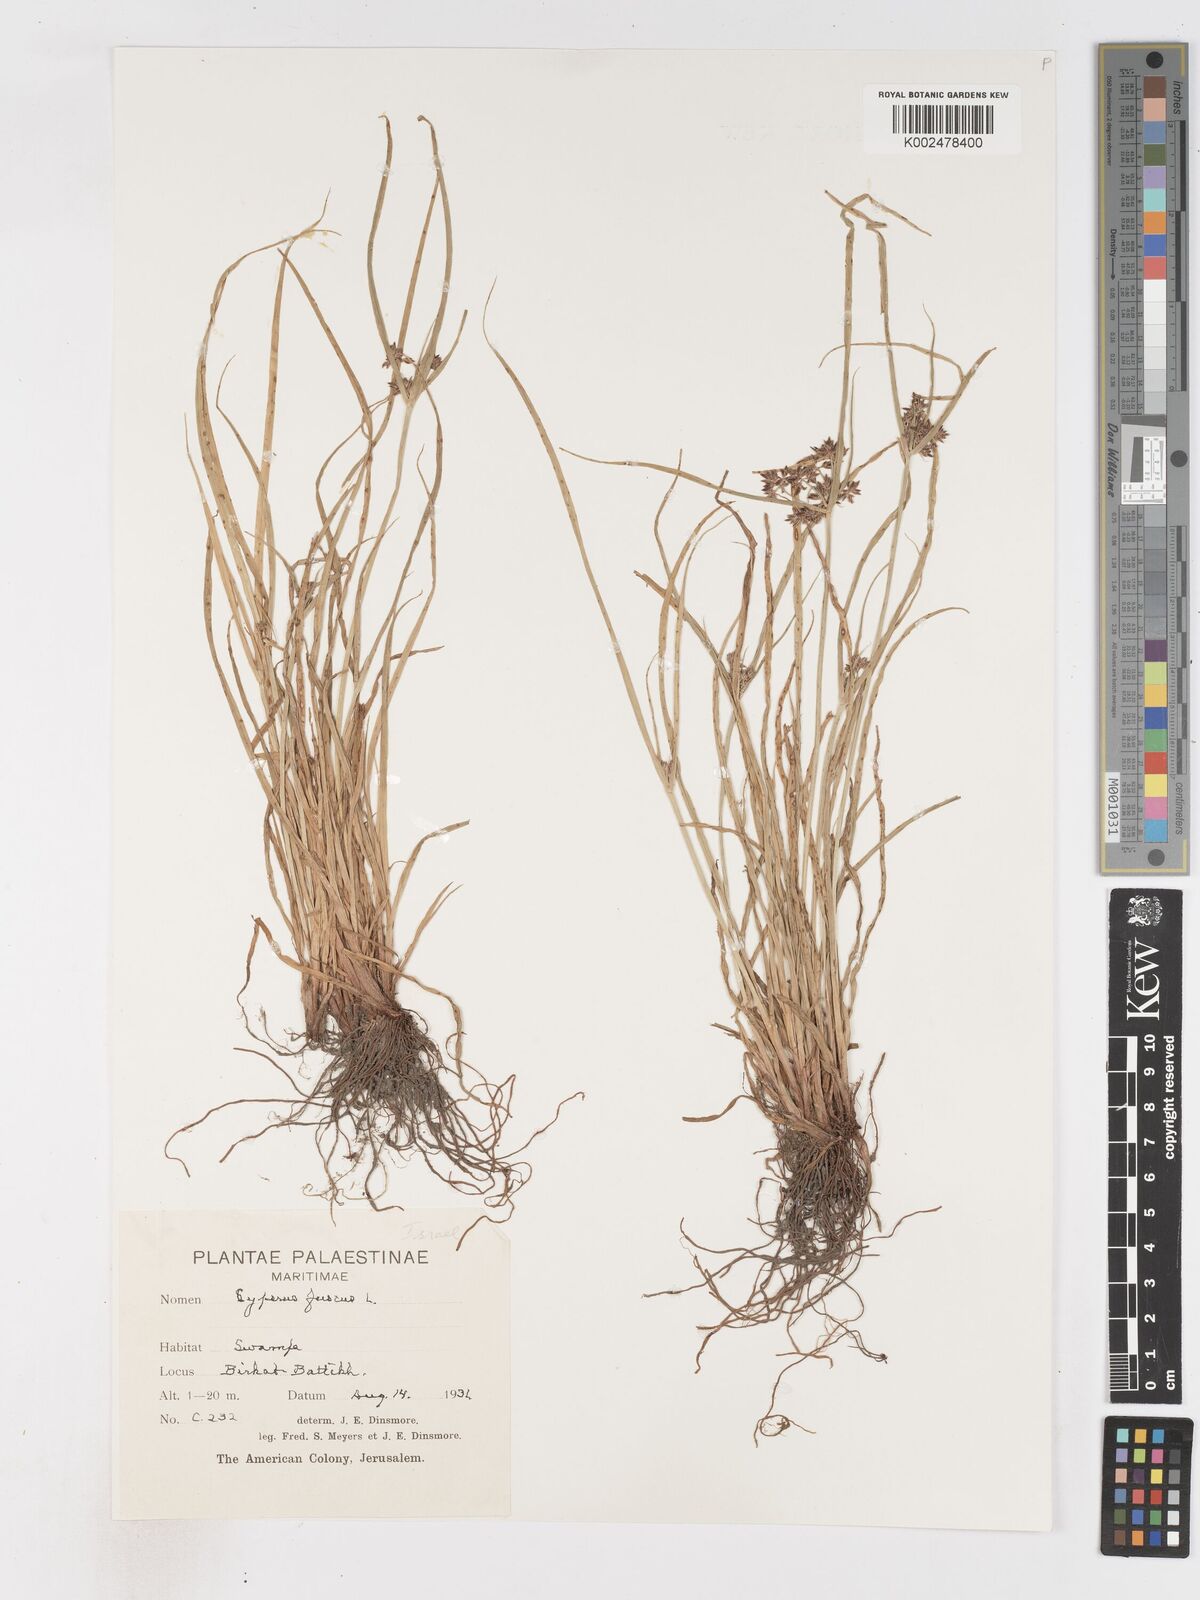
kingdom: Plantae
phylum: Tracheophyta
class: Liliopsida
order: Poales
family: Cyperaceae
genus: Cyperus
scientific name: Cyperus fuscus
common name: Brown galingale
